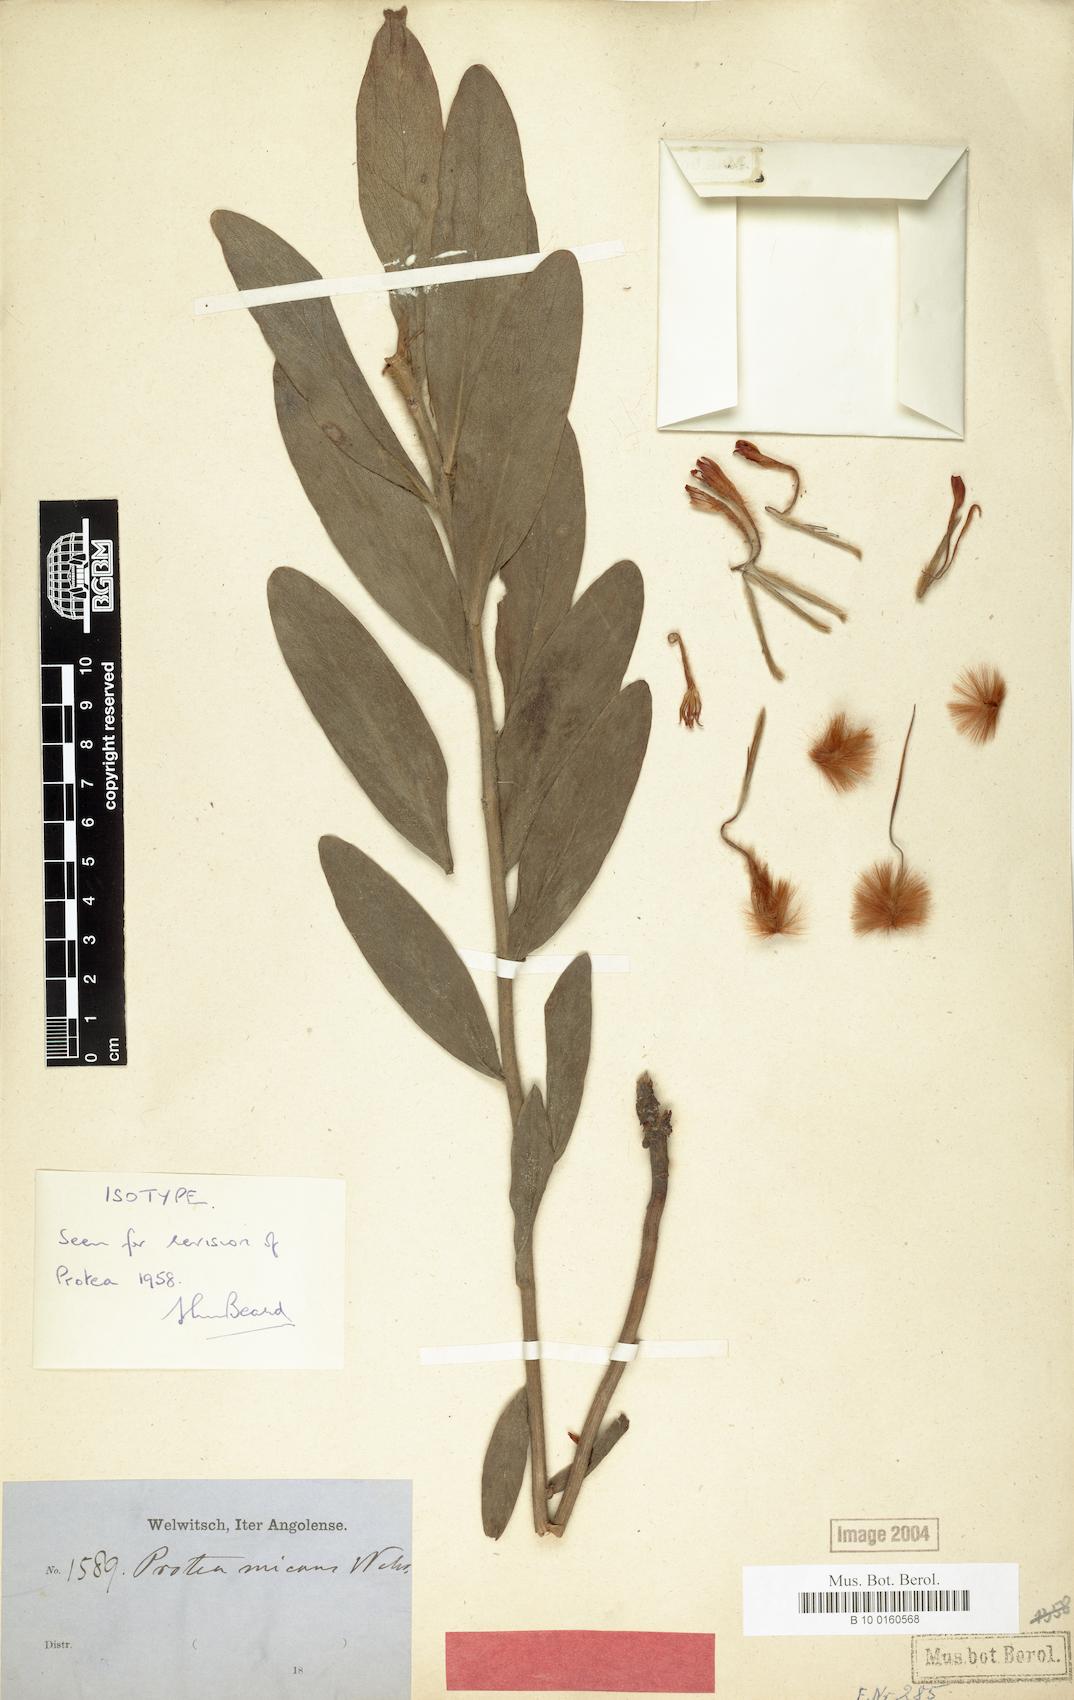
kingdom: Plantae
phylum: Tracheophyta
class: Magnoliopsida
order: Proteales
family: Proteaceae
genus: Protea
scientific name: Protea micans
